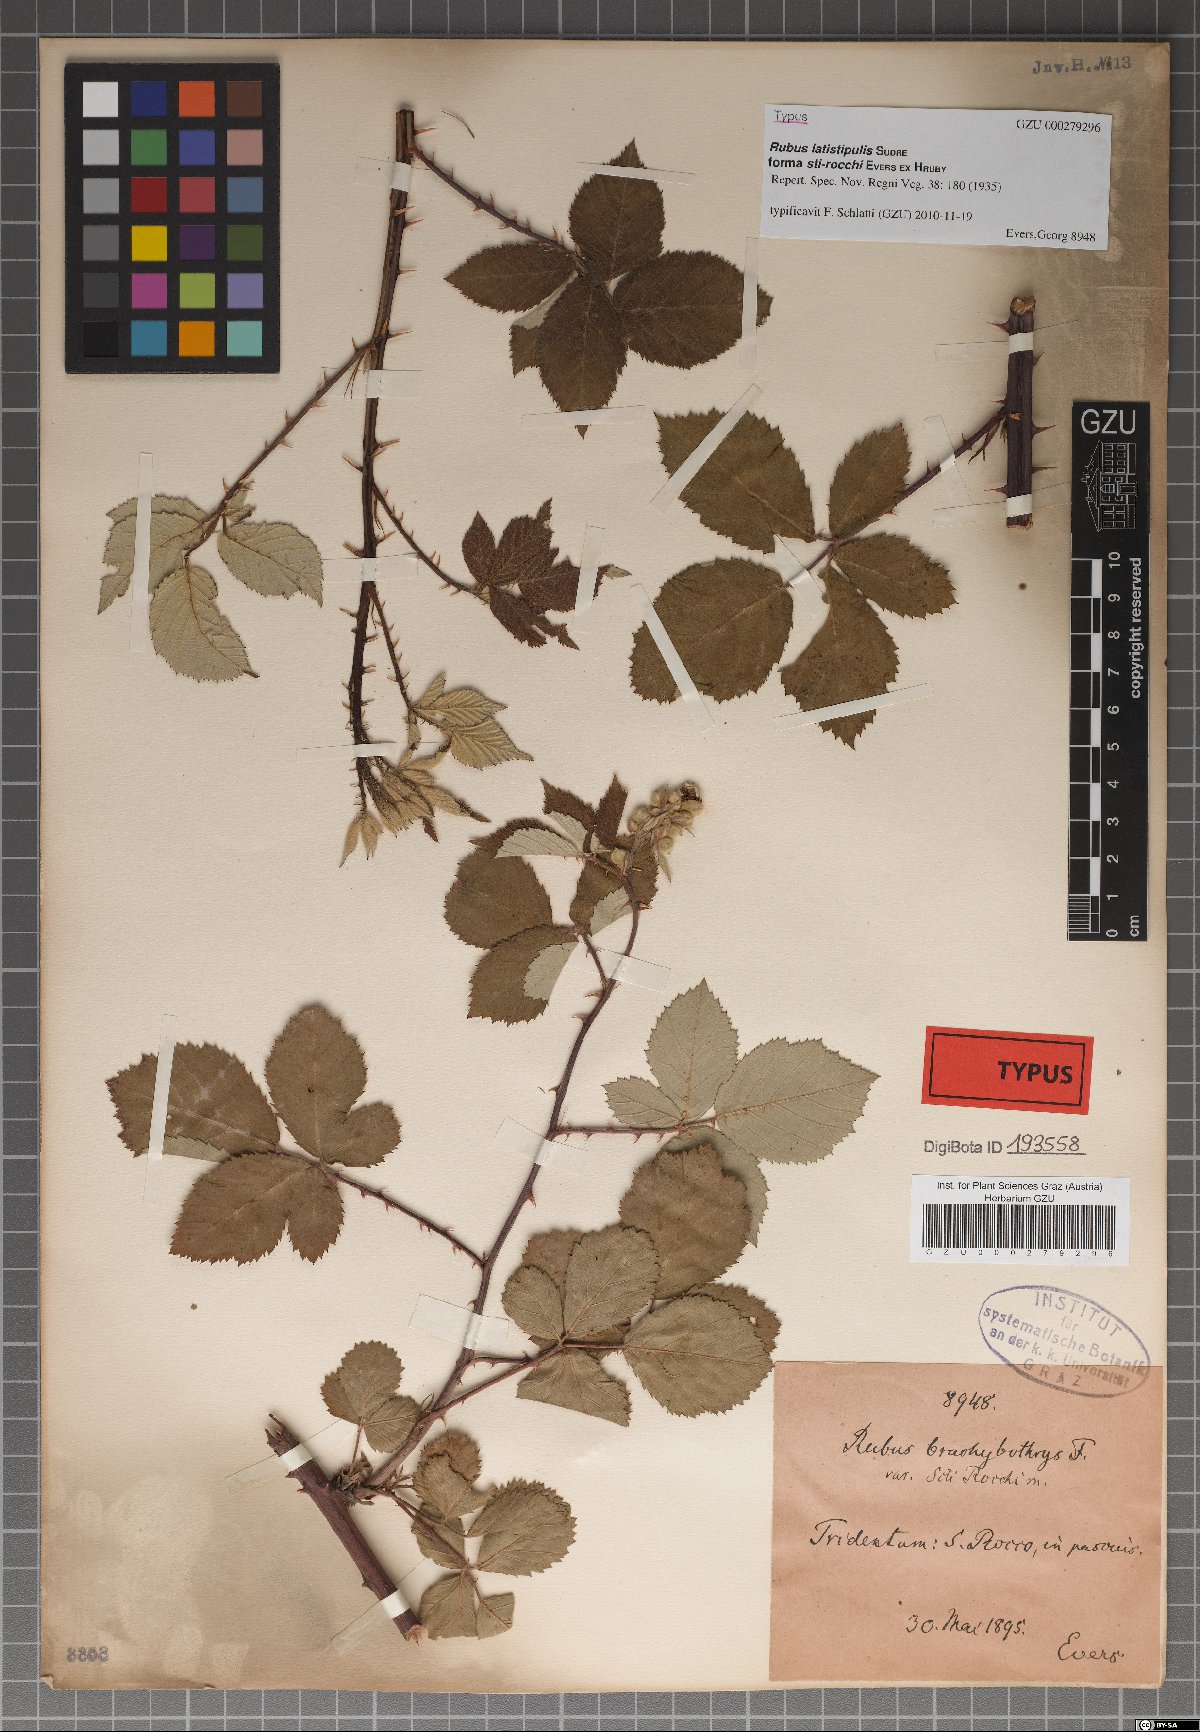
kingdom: Plantae
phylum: Tracheophyta
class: Magnoliopsida
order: Rosales
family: Rosaceae
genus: Rubus
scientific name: Rubus latistipulus
